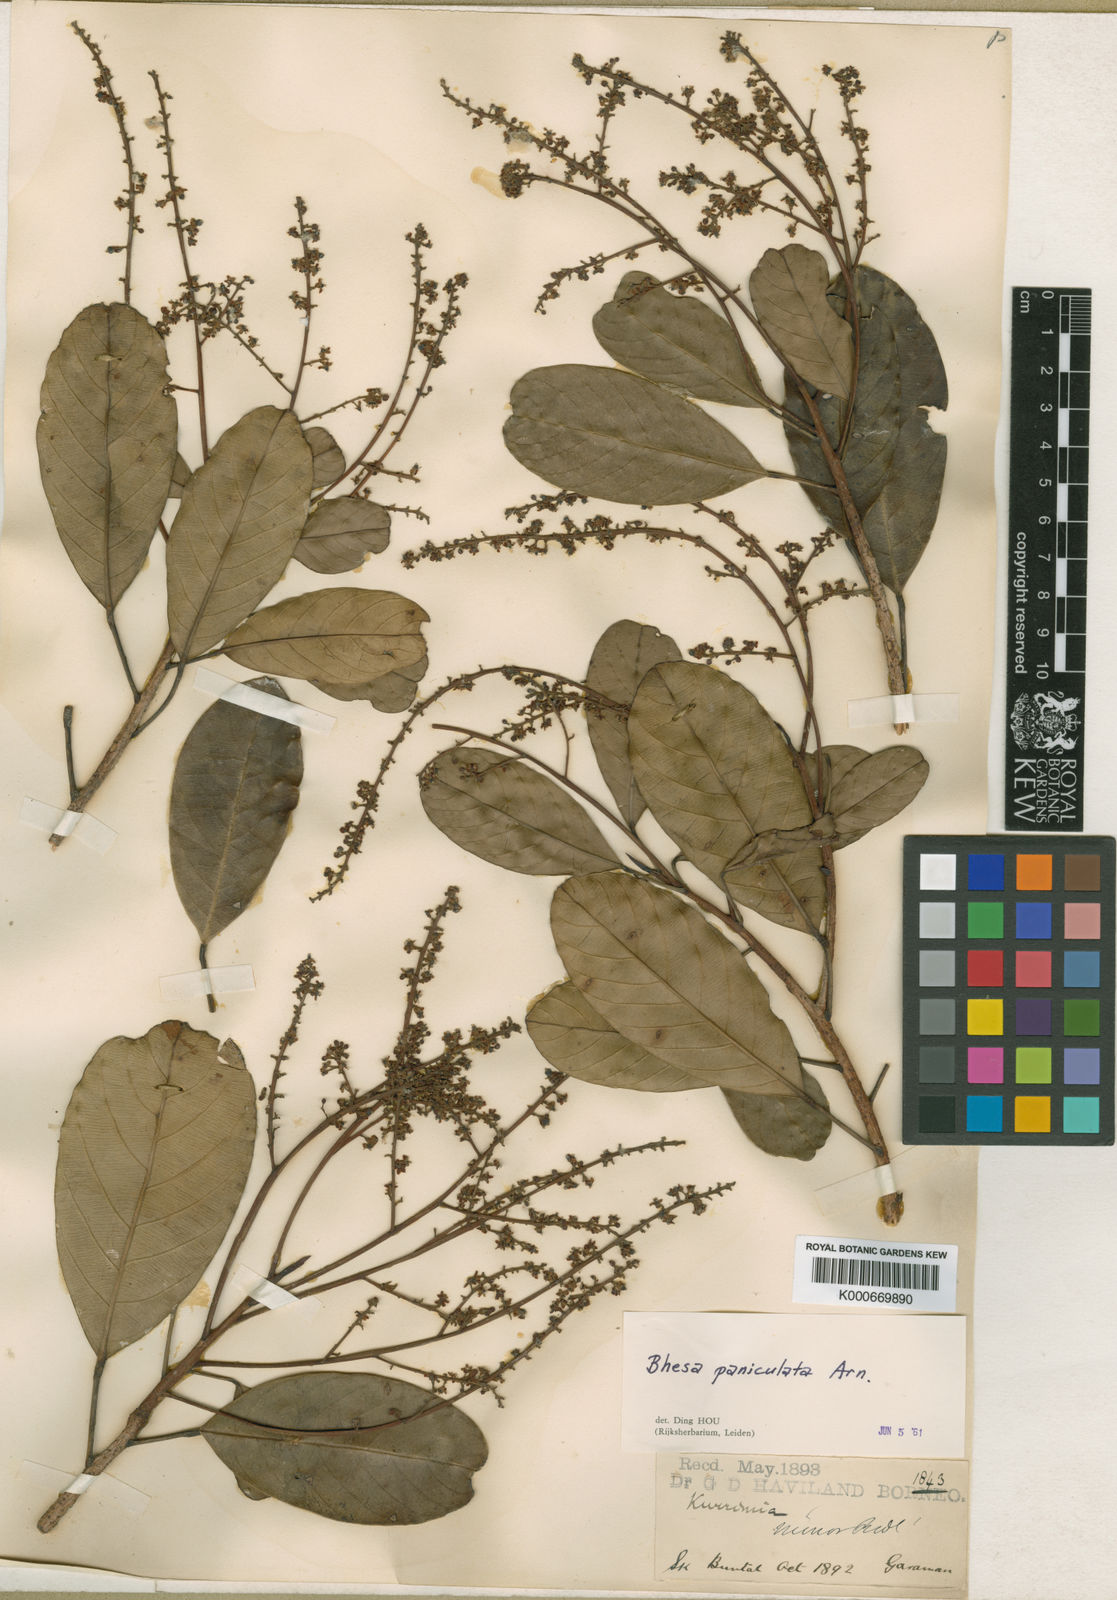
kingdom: Plantae
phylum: Tracheophyta
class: Magnoliopsida
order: Malpighiales
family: Centroplacaceae
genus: Bhesa
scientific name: Bhesa paniculata
